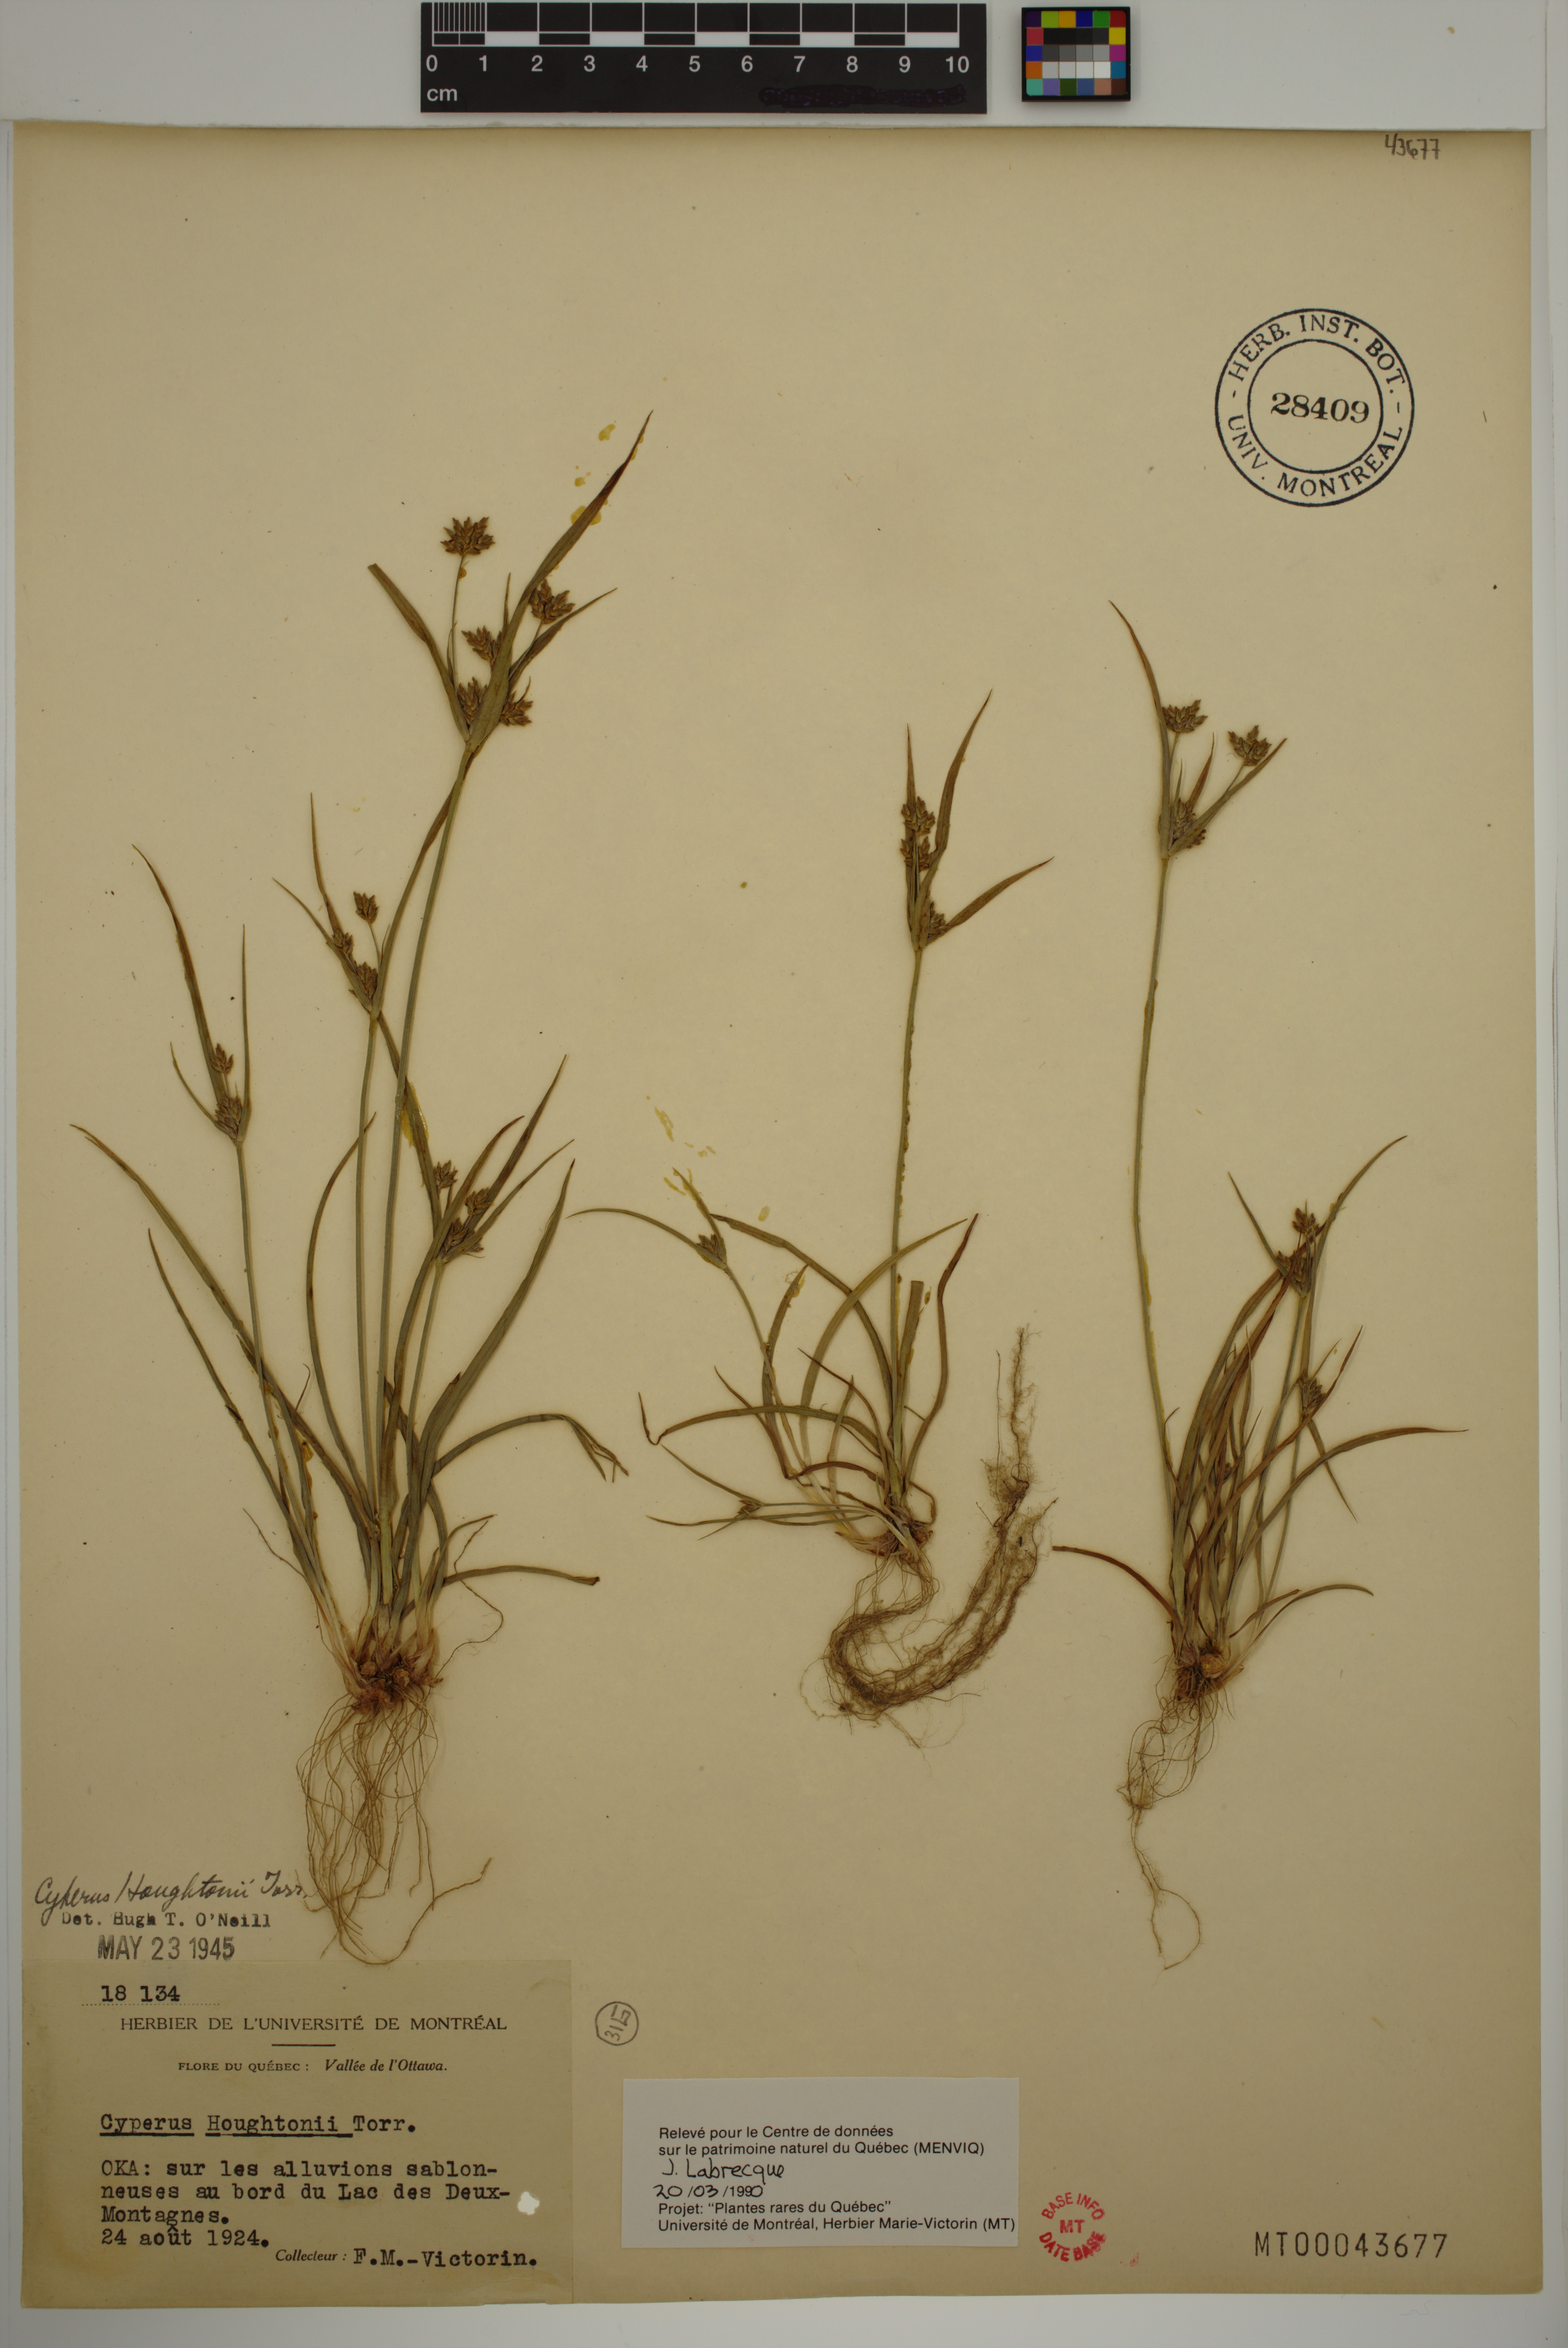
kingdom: Plantae
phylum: Tracheophyta
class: Liliopsida
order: Poales
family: Cyperaceae
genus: Cyperus
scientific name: Cyperus houghtonii
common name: Houghton's cyperus
